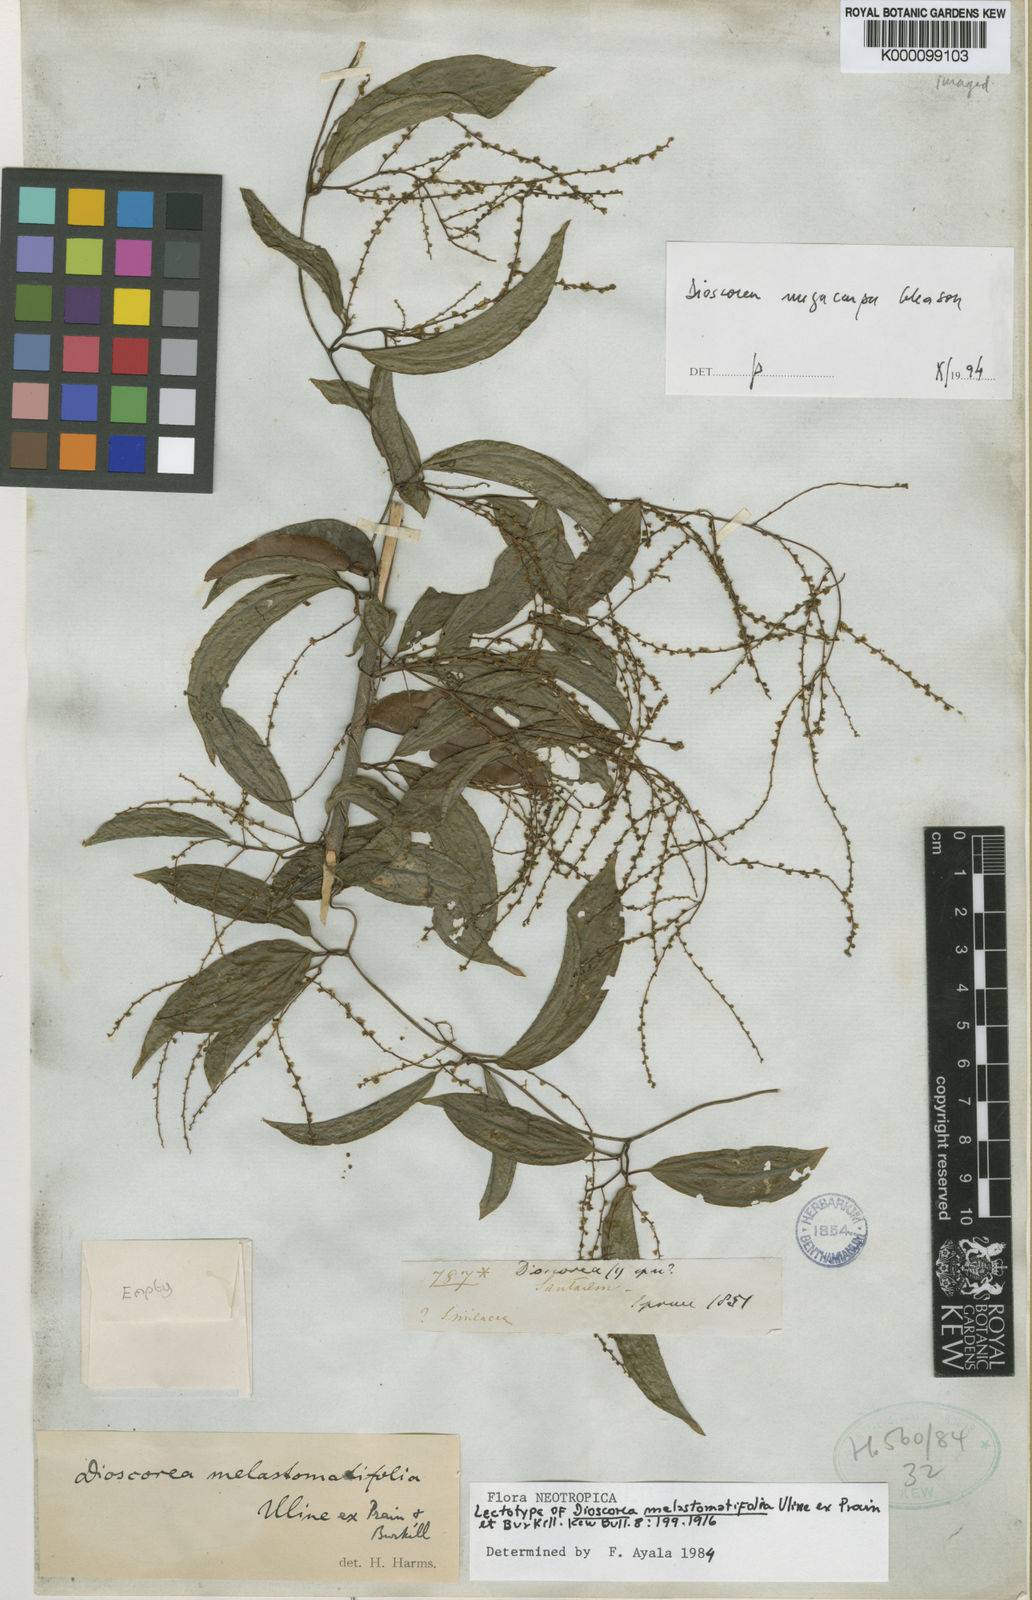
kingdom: Plantae
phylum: Tracheophyta
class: Liliopsida
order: Dioscoreales
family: Dioscoreaceae
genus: Dioscorea
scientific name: Dioscorea melastomatifolia
